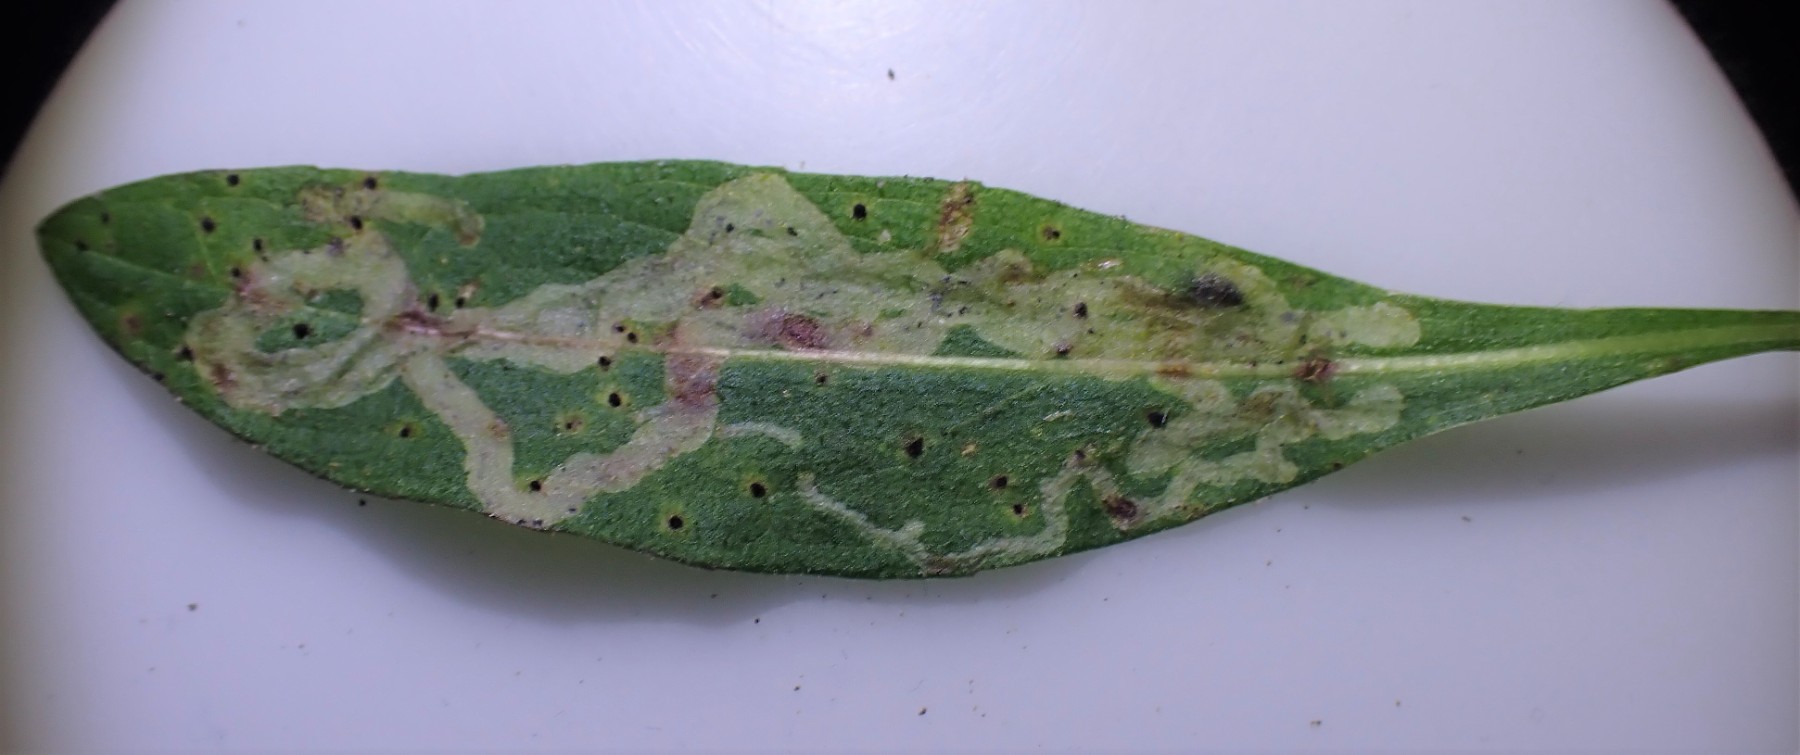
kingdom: Fungi
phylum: Basidiomycota
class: Pucciniomycetes
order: Pucciniales
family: Pucciniaceae
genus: Puccinia
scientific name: Puccinia hieracii
